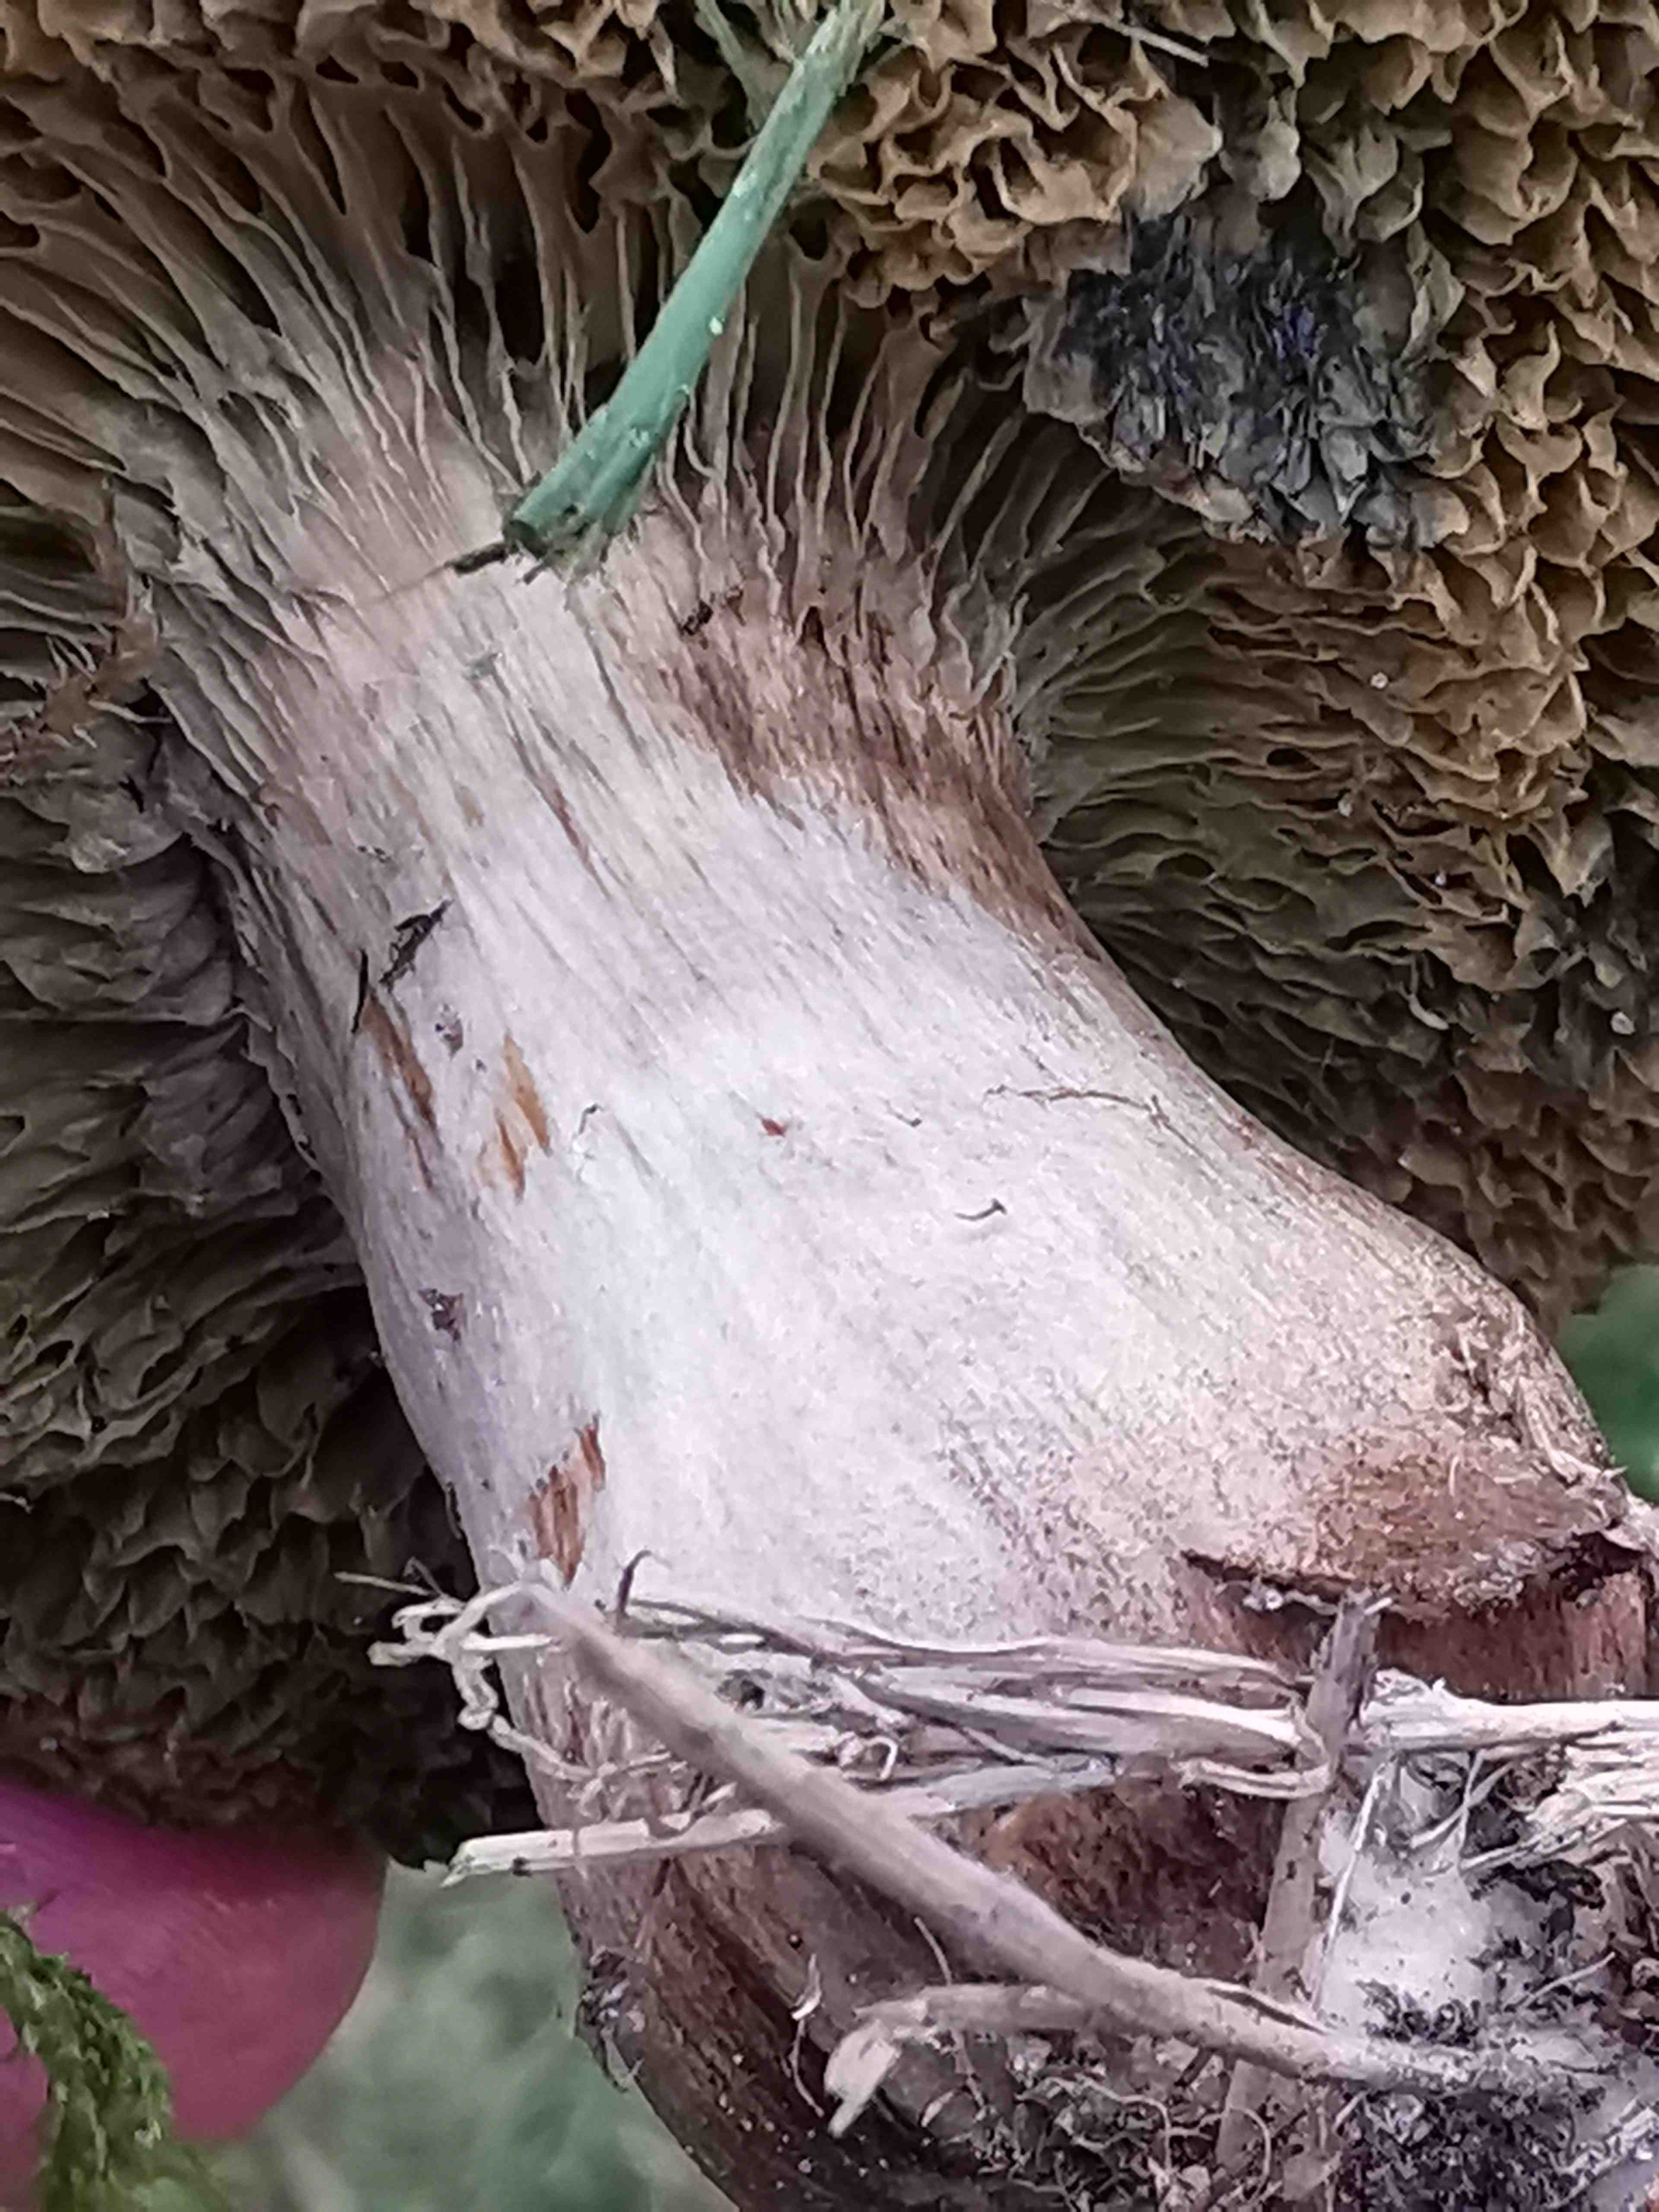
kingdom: Fungi
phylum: Basidiomycota
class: Agaricomycetes
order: Boletales
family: Boletaceae
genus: Xerocomellus
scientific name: Xerocomellus porosporus
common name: hvidsprukken rørhat
